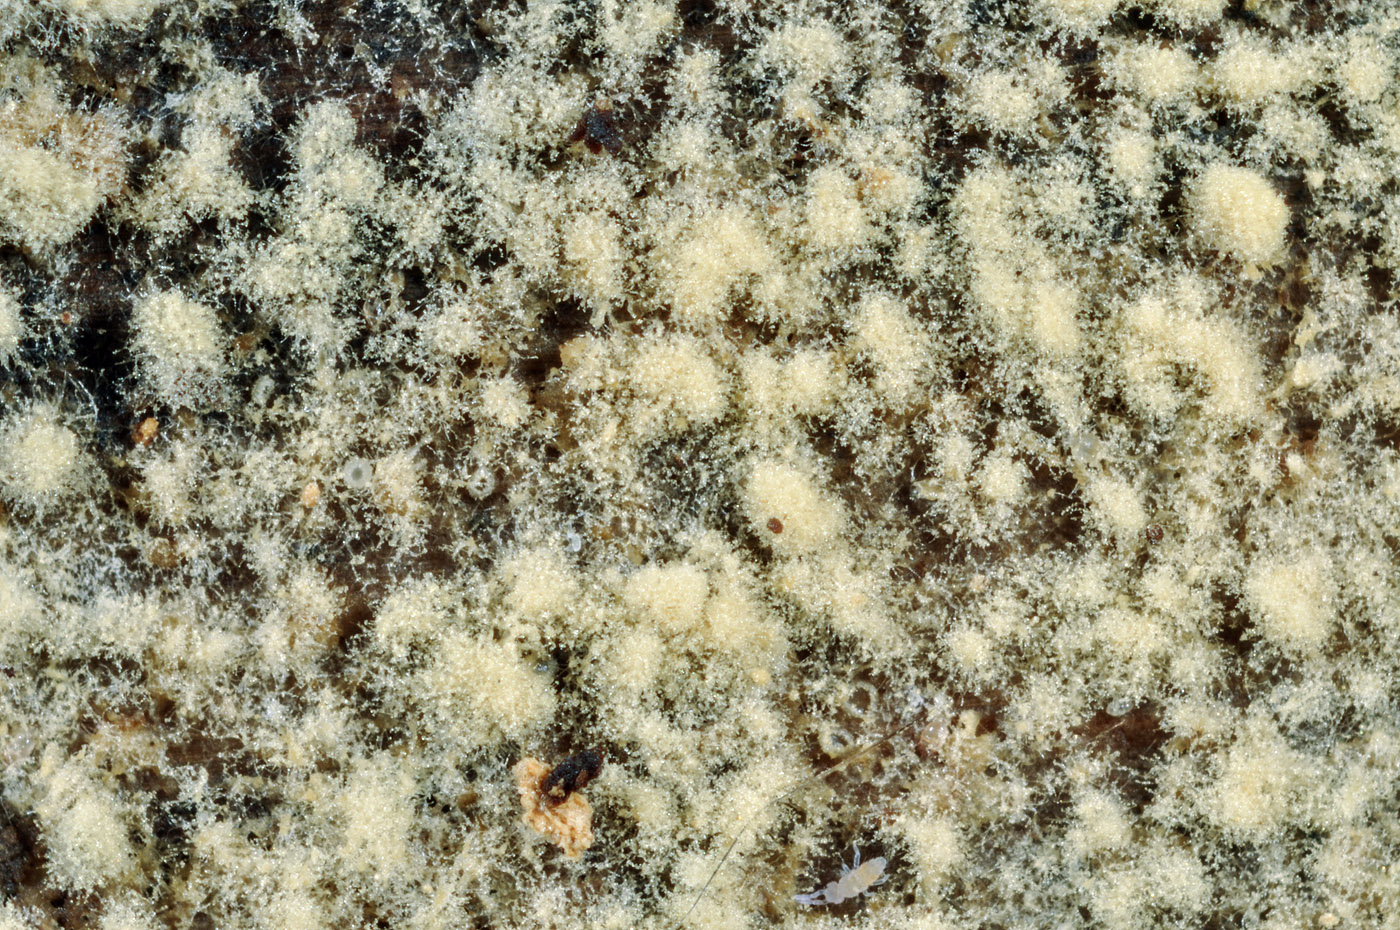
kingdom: Fungi
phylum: Basidiomycota
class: Agaricomycetes
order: Cantharellales
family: Botryobasidiaceae
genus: Botryobasidium
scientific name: Botryobasidium ellipsosporum
